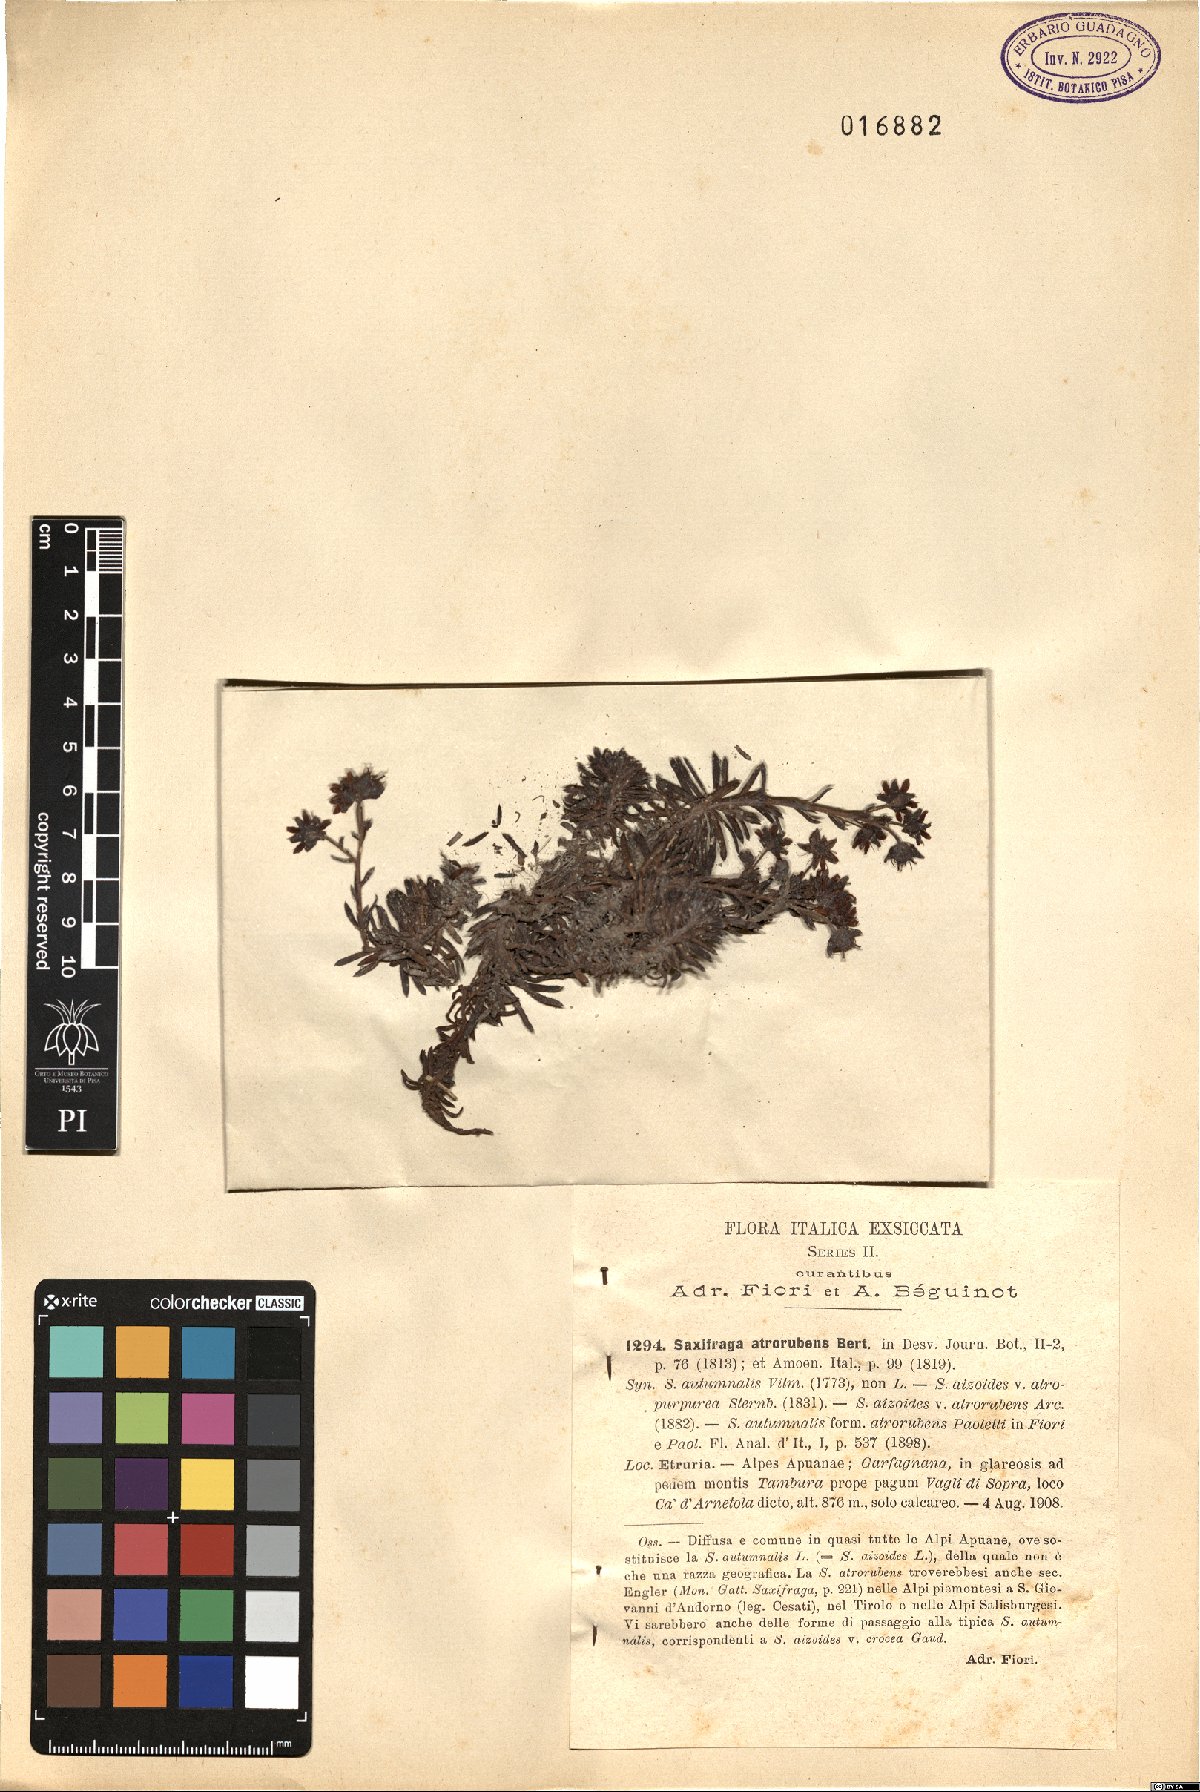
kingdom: Plantae
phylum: Tracheophyta
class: Magnoliopsida
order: Saxifragales
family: Saxifragaceae
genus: Saxifraga
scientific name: Saxifraga aizoides
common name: Yellow mountain saxifrage
